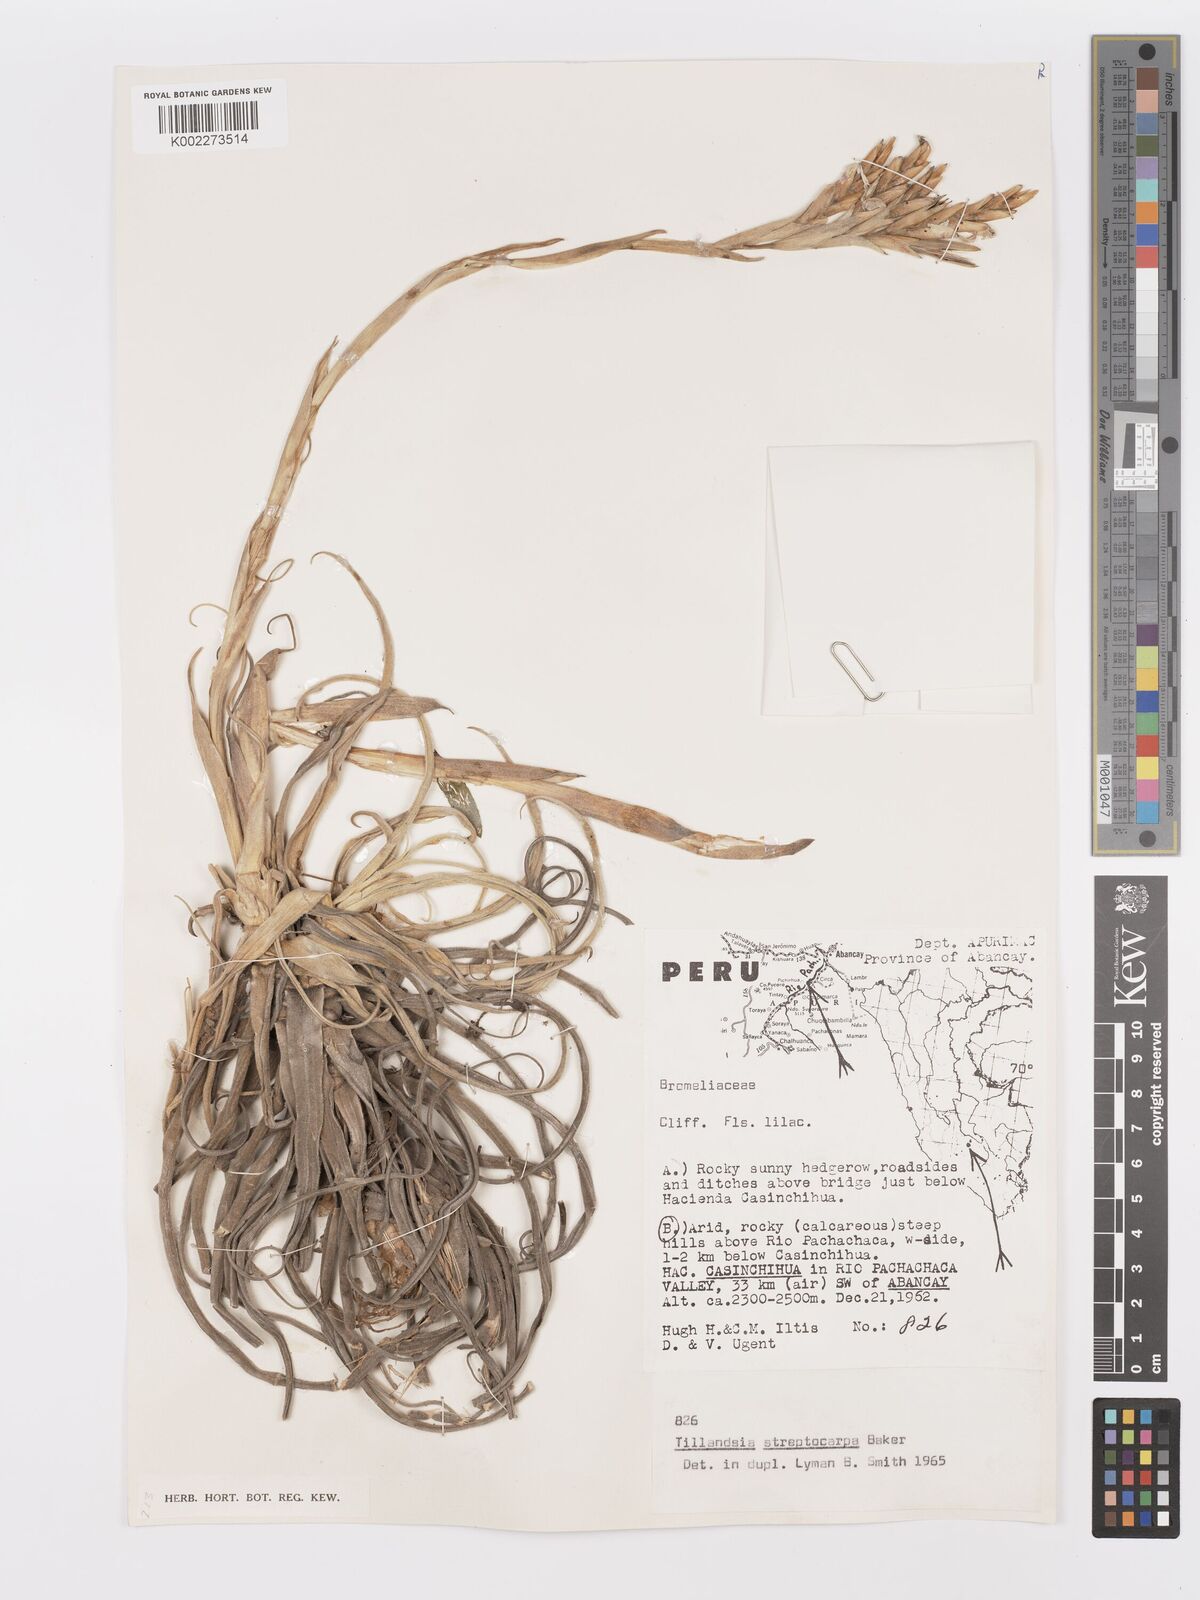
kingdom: Plantae
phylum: Tracheophyta
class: Liliopsida
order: Poales
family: Bromeliaceae
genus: Tillandsia
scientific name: Tillandsia streptocarpa
